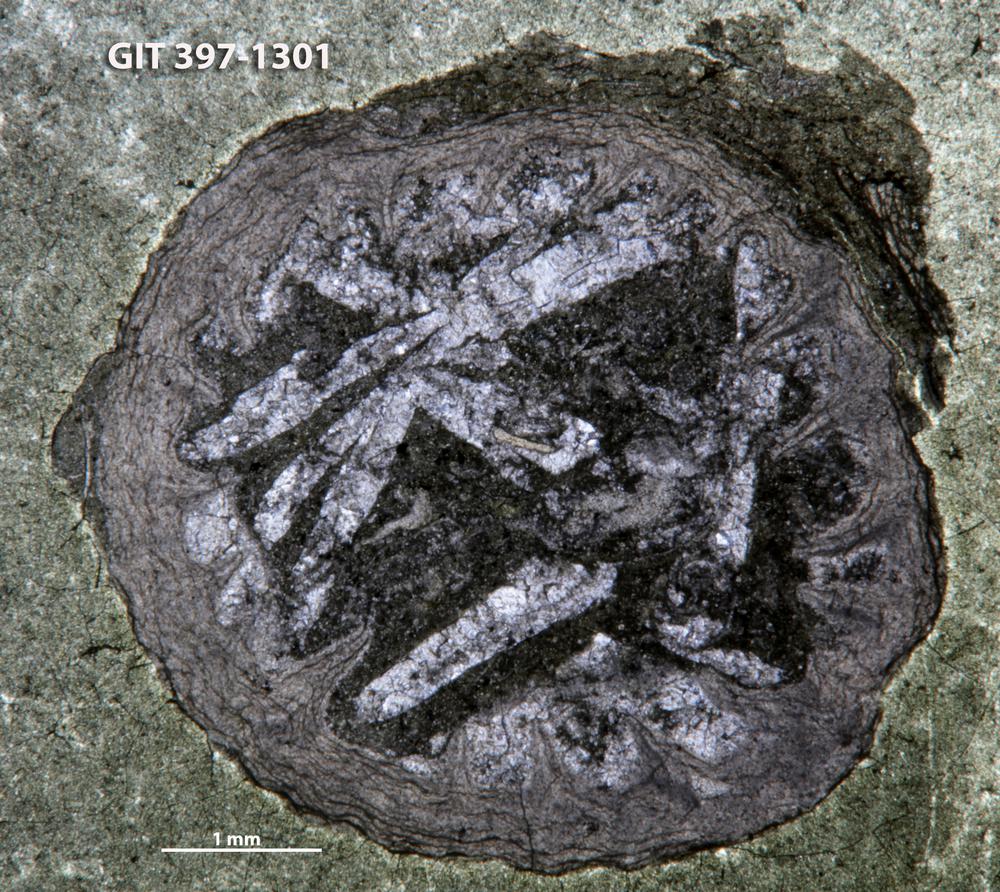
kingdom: Animalia
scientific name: Animalia
